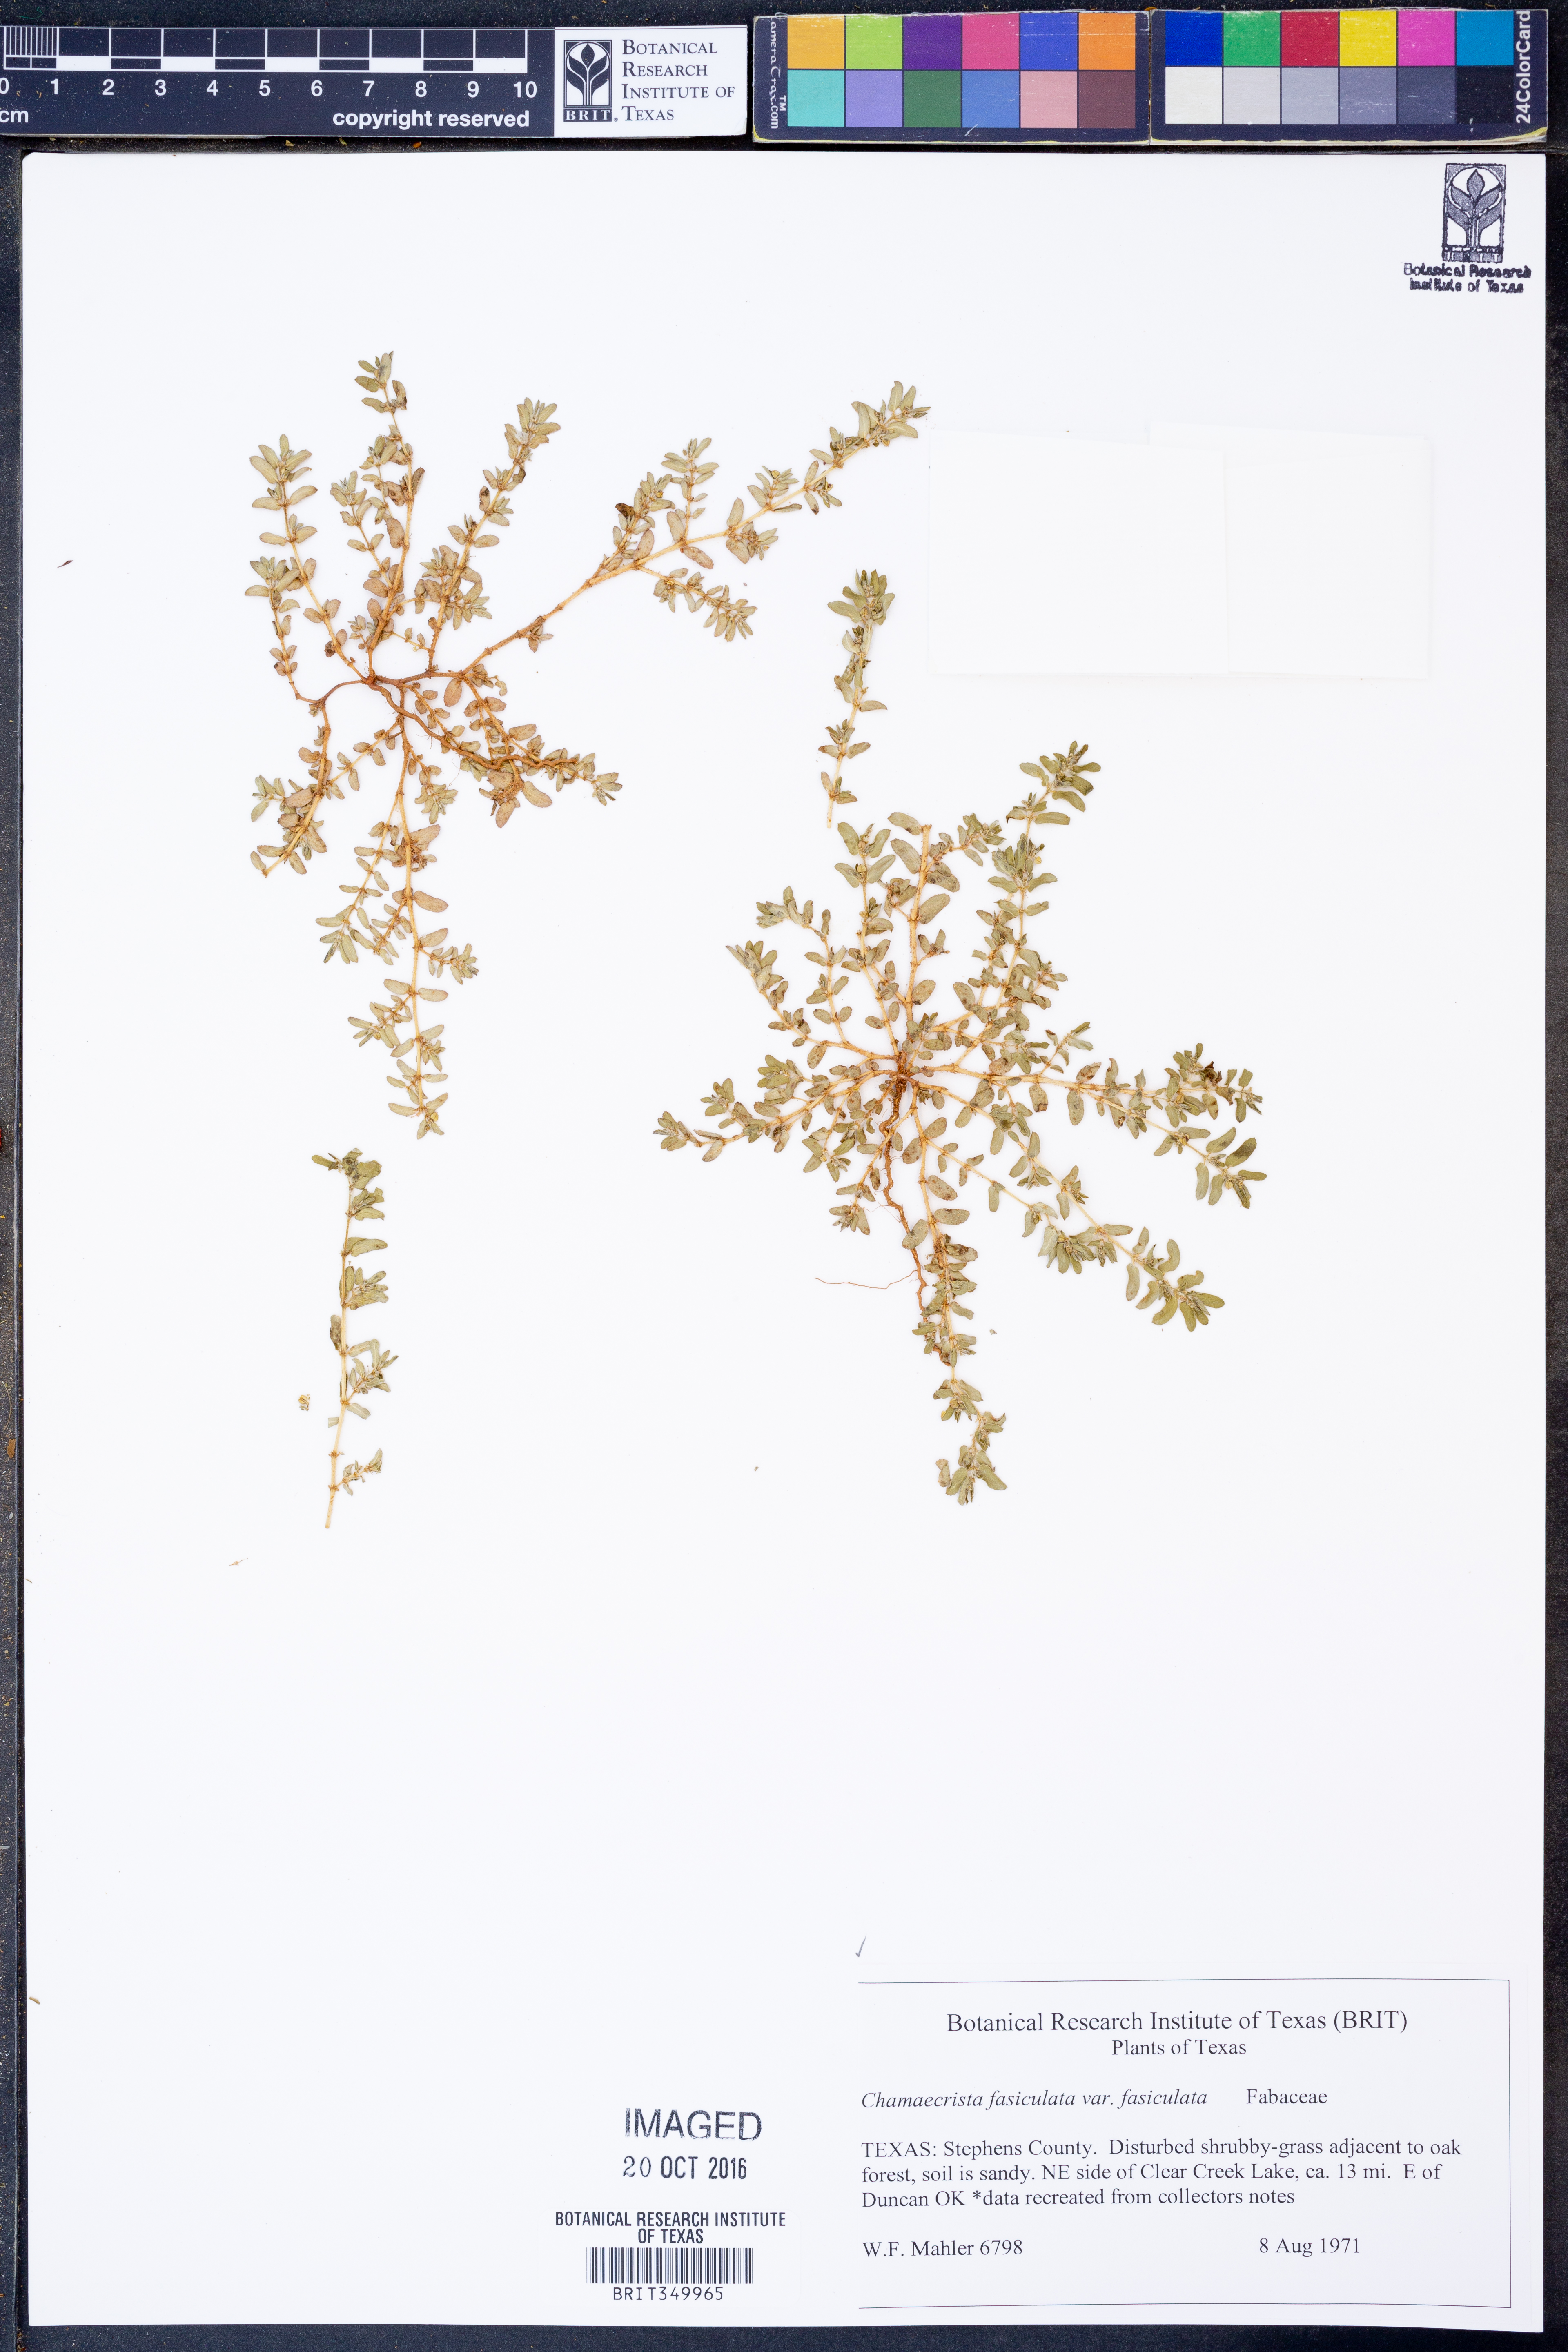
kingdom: Plantae
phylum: Tracheophyta
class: Magnoliopsida
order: Fabales
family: Fabaceae
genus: Chamaecrista
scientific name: Chamaecrista fasciculata
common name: Golden cassia
